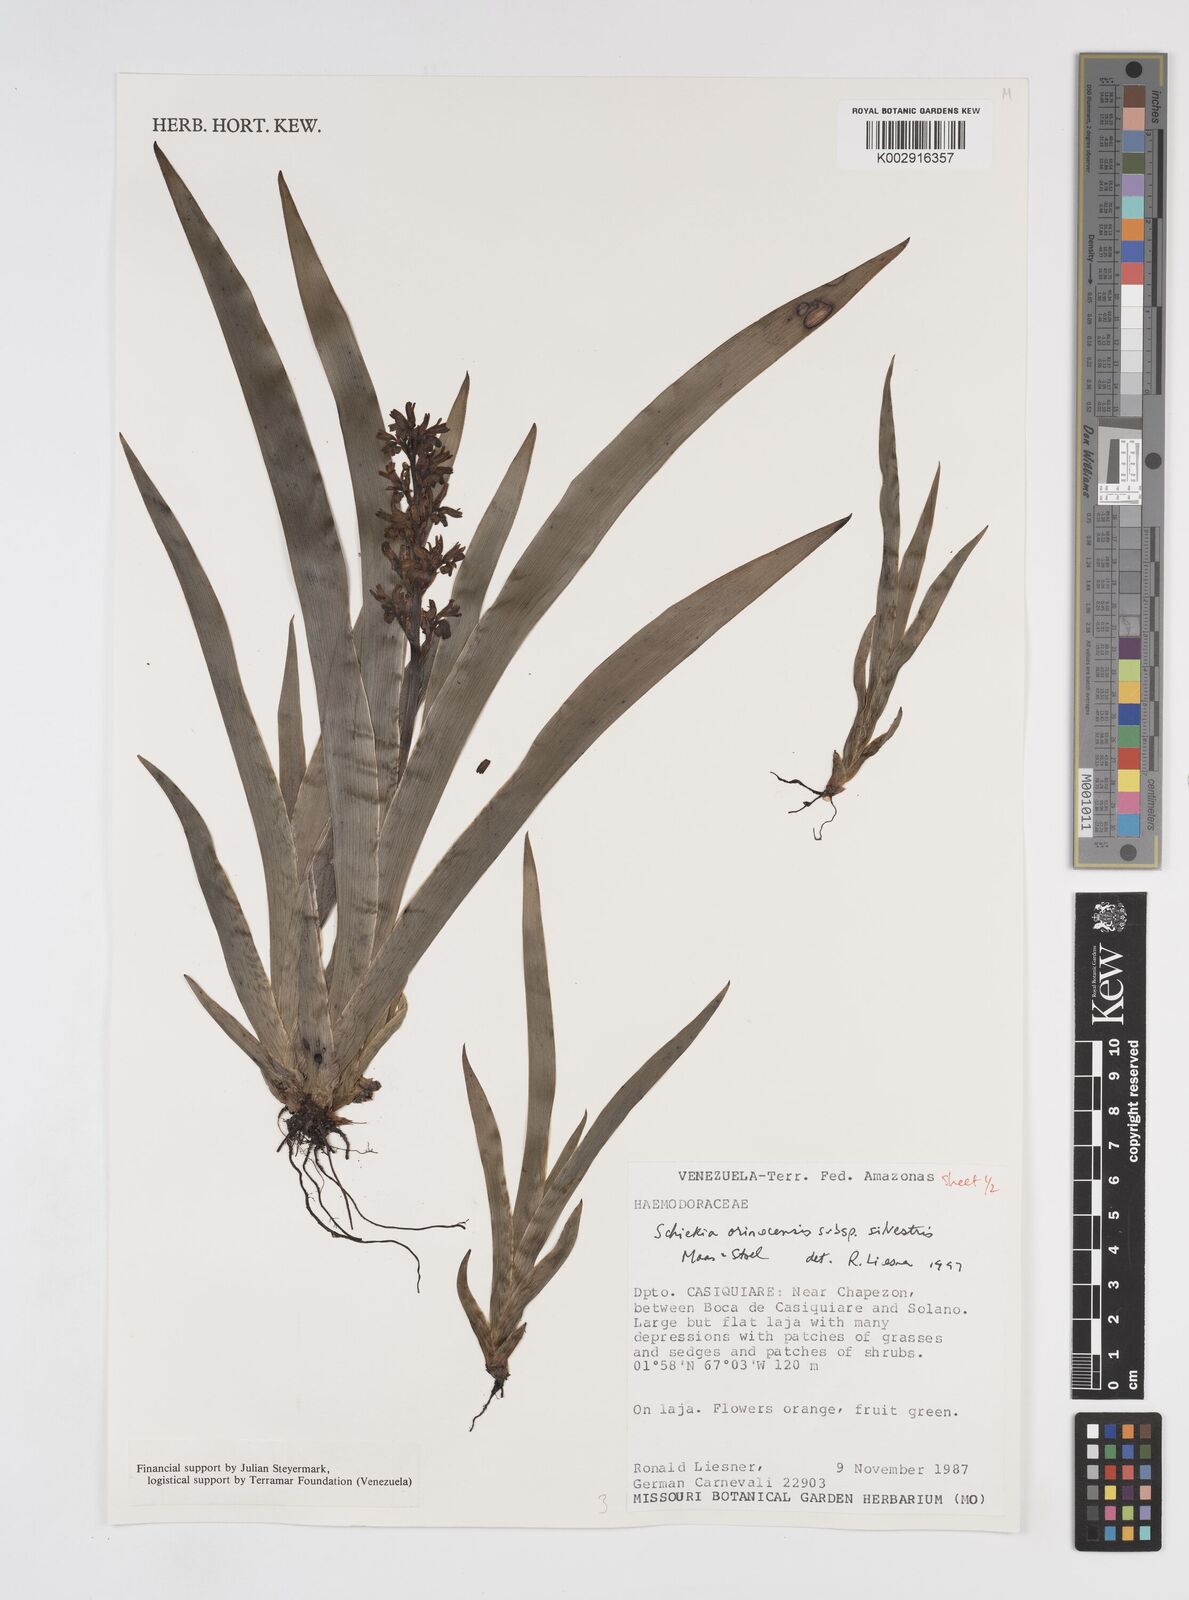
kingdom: Plantae
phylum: Tracheophyta
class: Liliopsida
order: Commelinales
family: Haemodoraceae
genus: Schiekia
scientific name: Schiekia orinocensis
